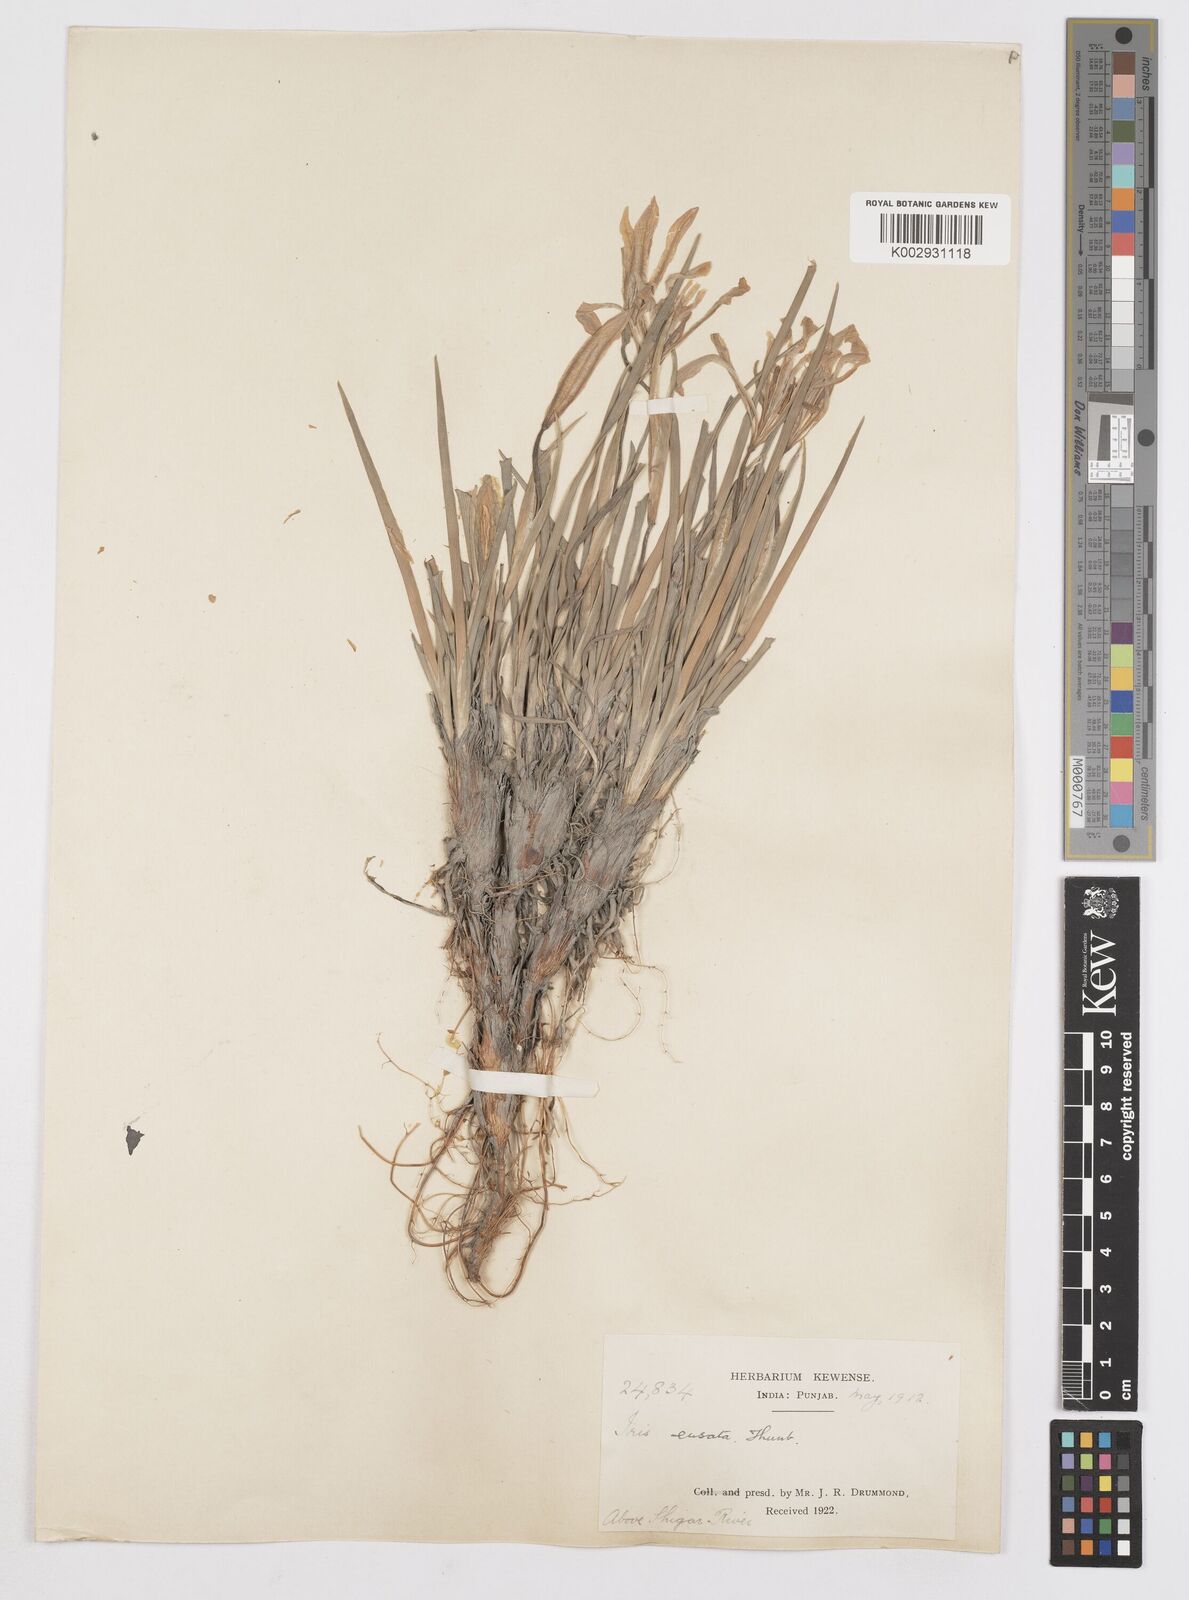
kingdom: Plantae
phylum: Tracheophyta
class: Liliopsida
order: Asparagales
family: Iridaceae
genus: Iris
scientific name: Iris ensata
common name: Beaked iris
